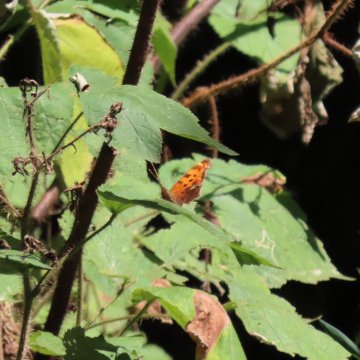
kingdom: Animalia
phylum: Arthropoda
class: Insecta
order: Lepidoptera
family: Nymphalidae
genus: Polygonia
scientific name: Polygonia comma
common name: Eastern Comma
